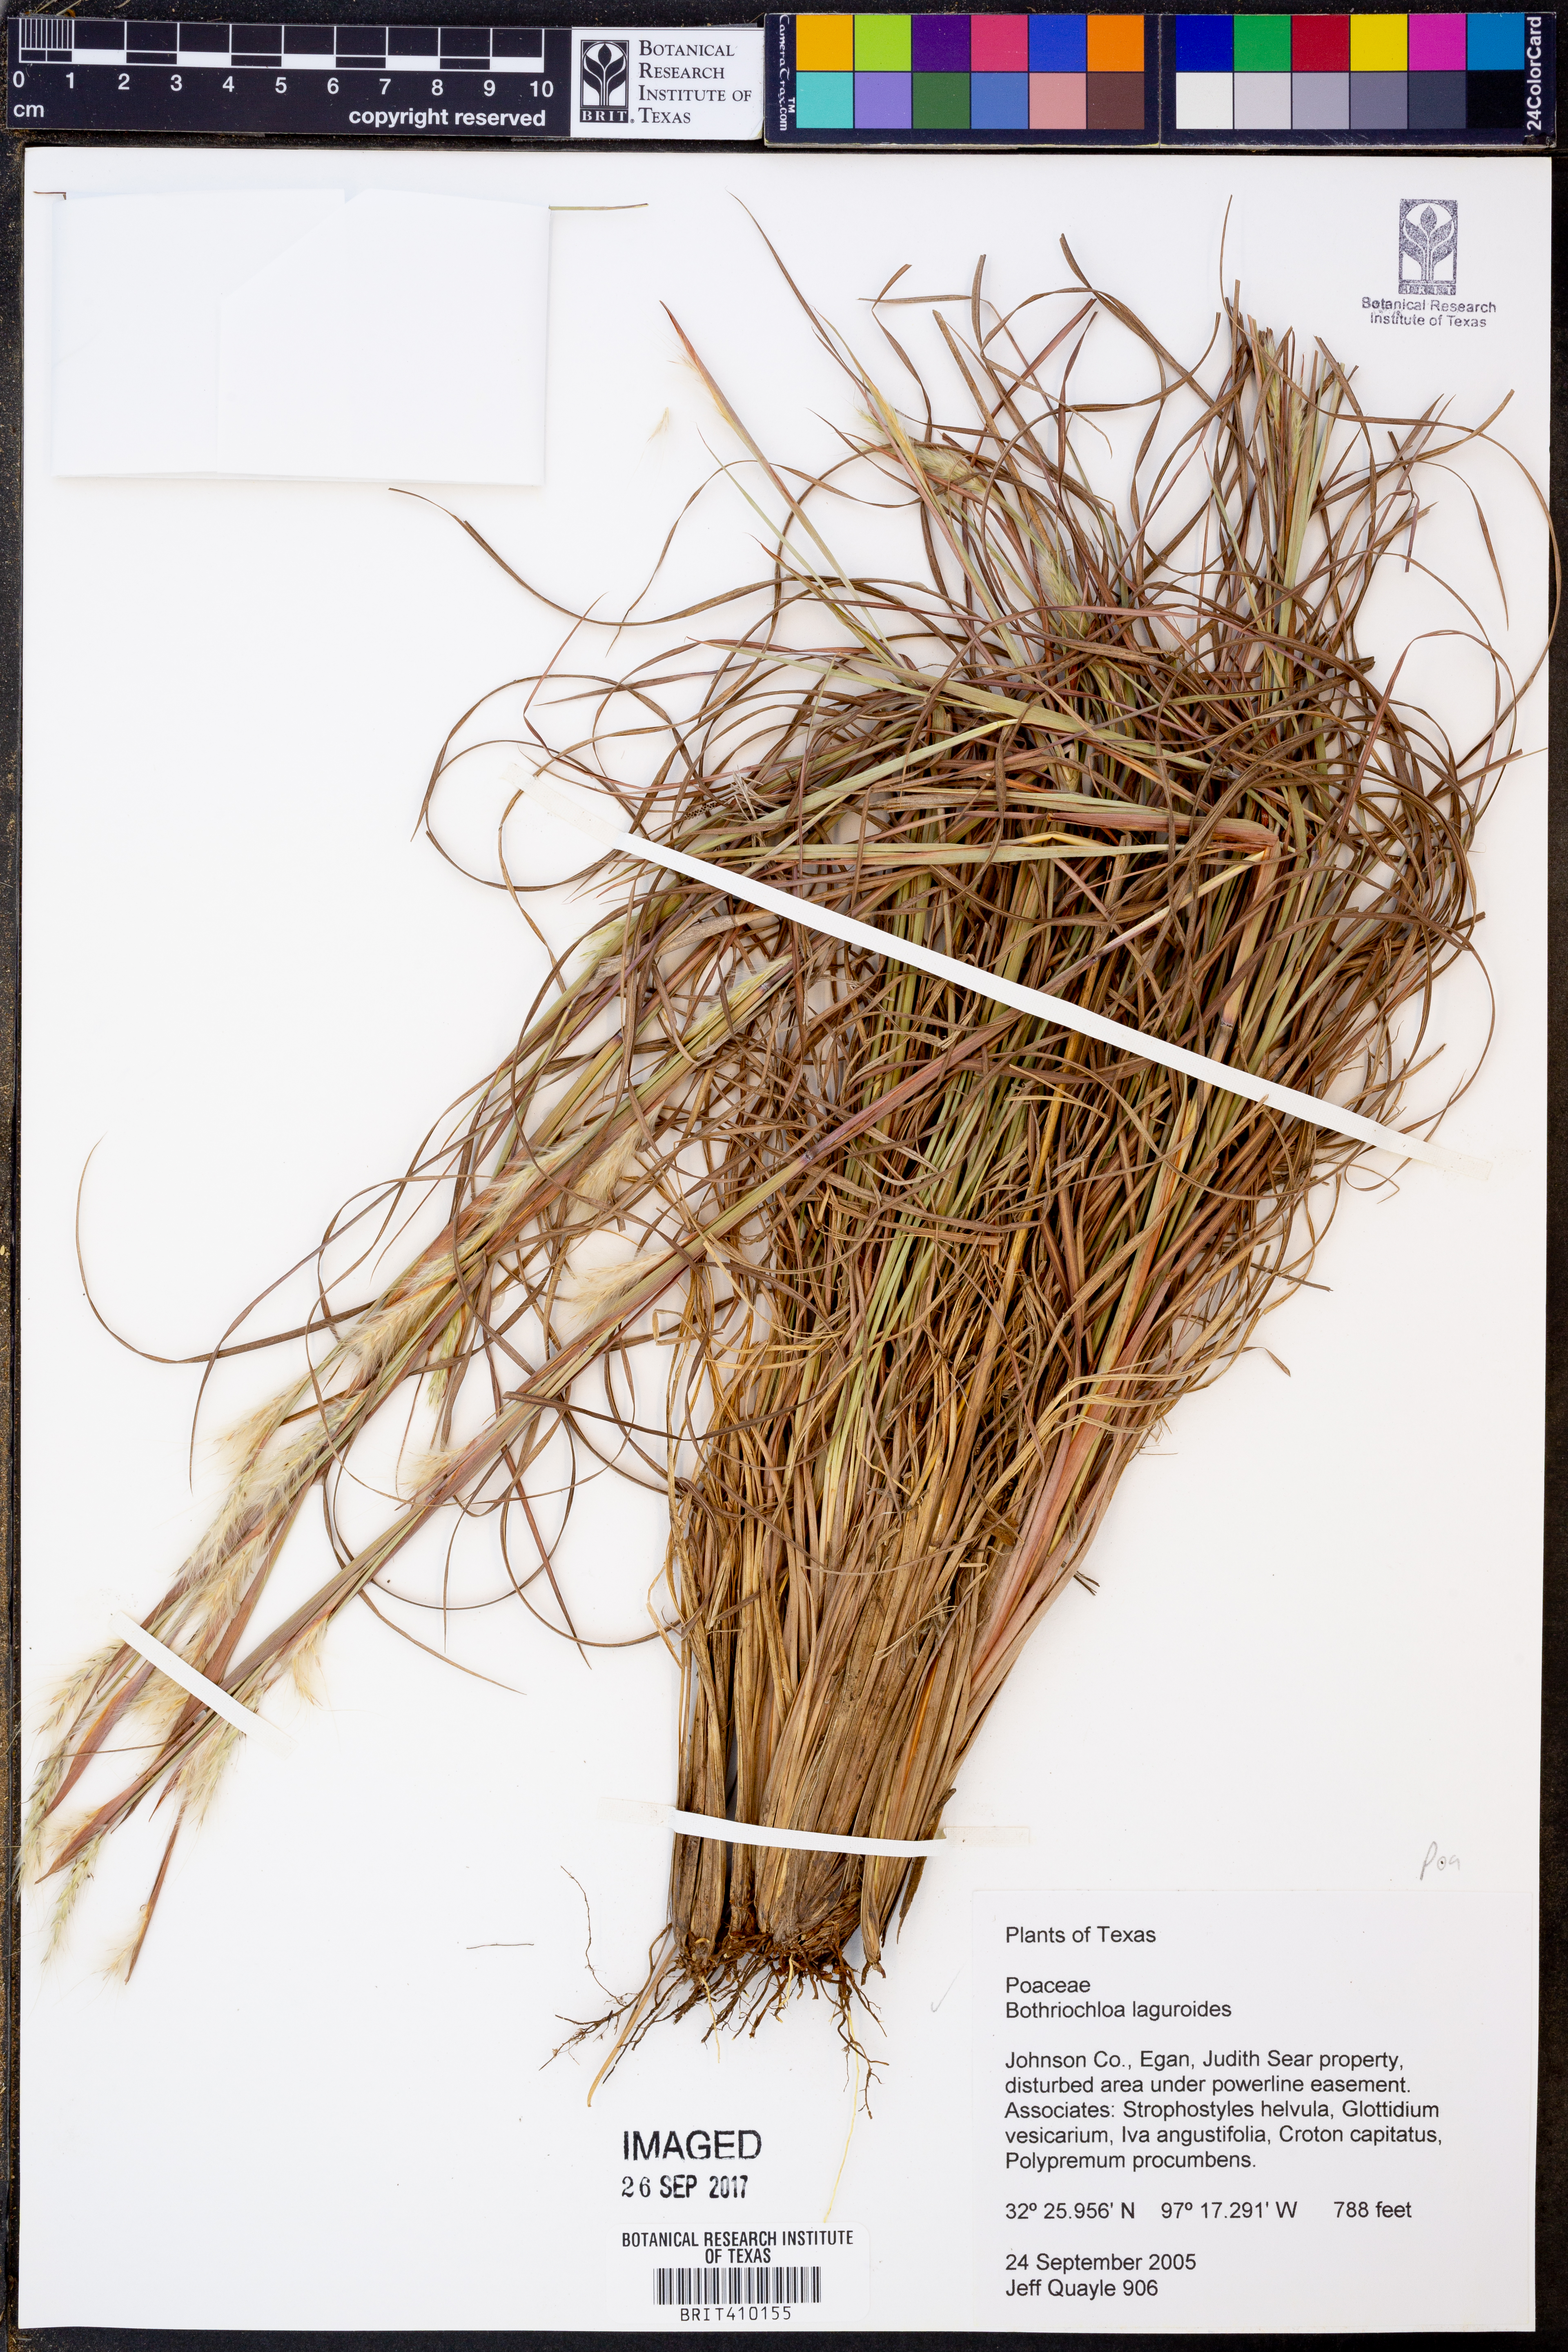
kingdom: Plantae
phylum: Tracheophyta
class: Liliopsida
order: Poales
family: Poaceae
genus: Bothriochloa
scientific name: Bothriochloa laguroides
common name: Silver bluestem
